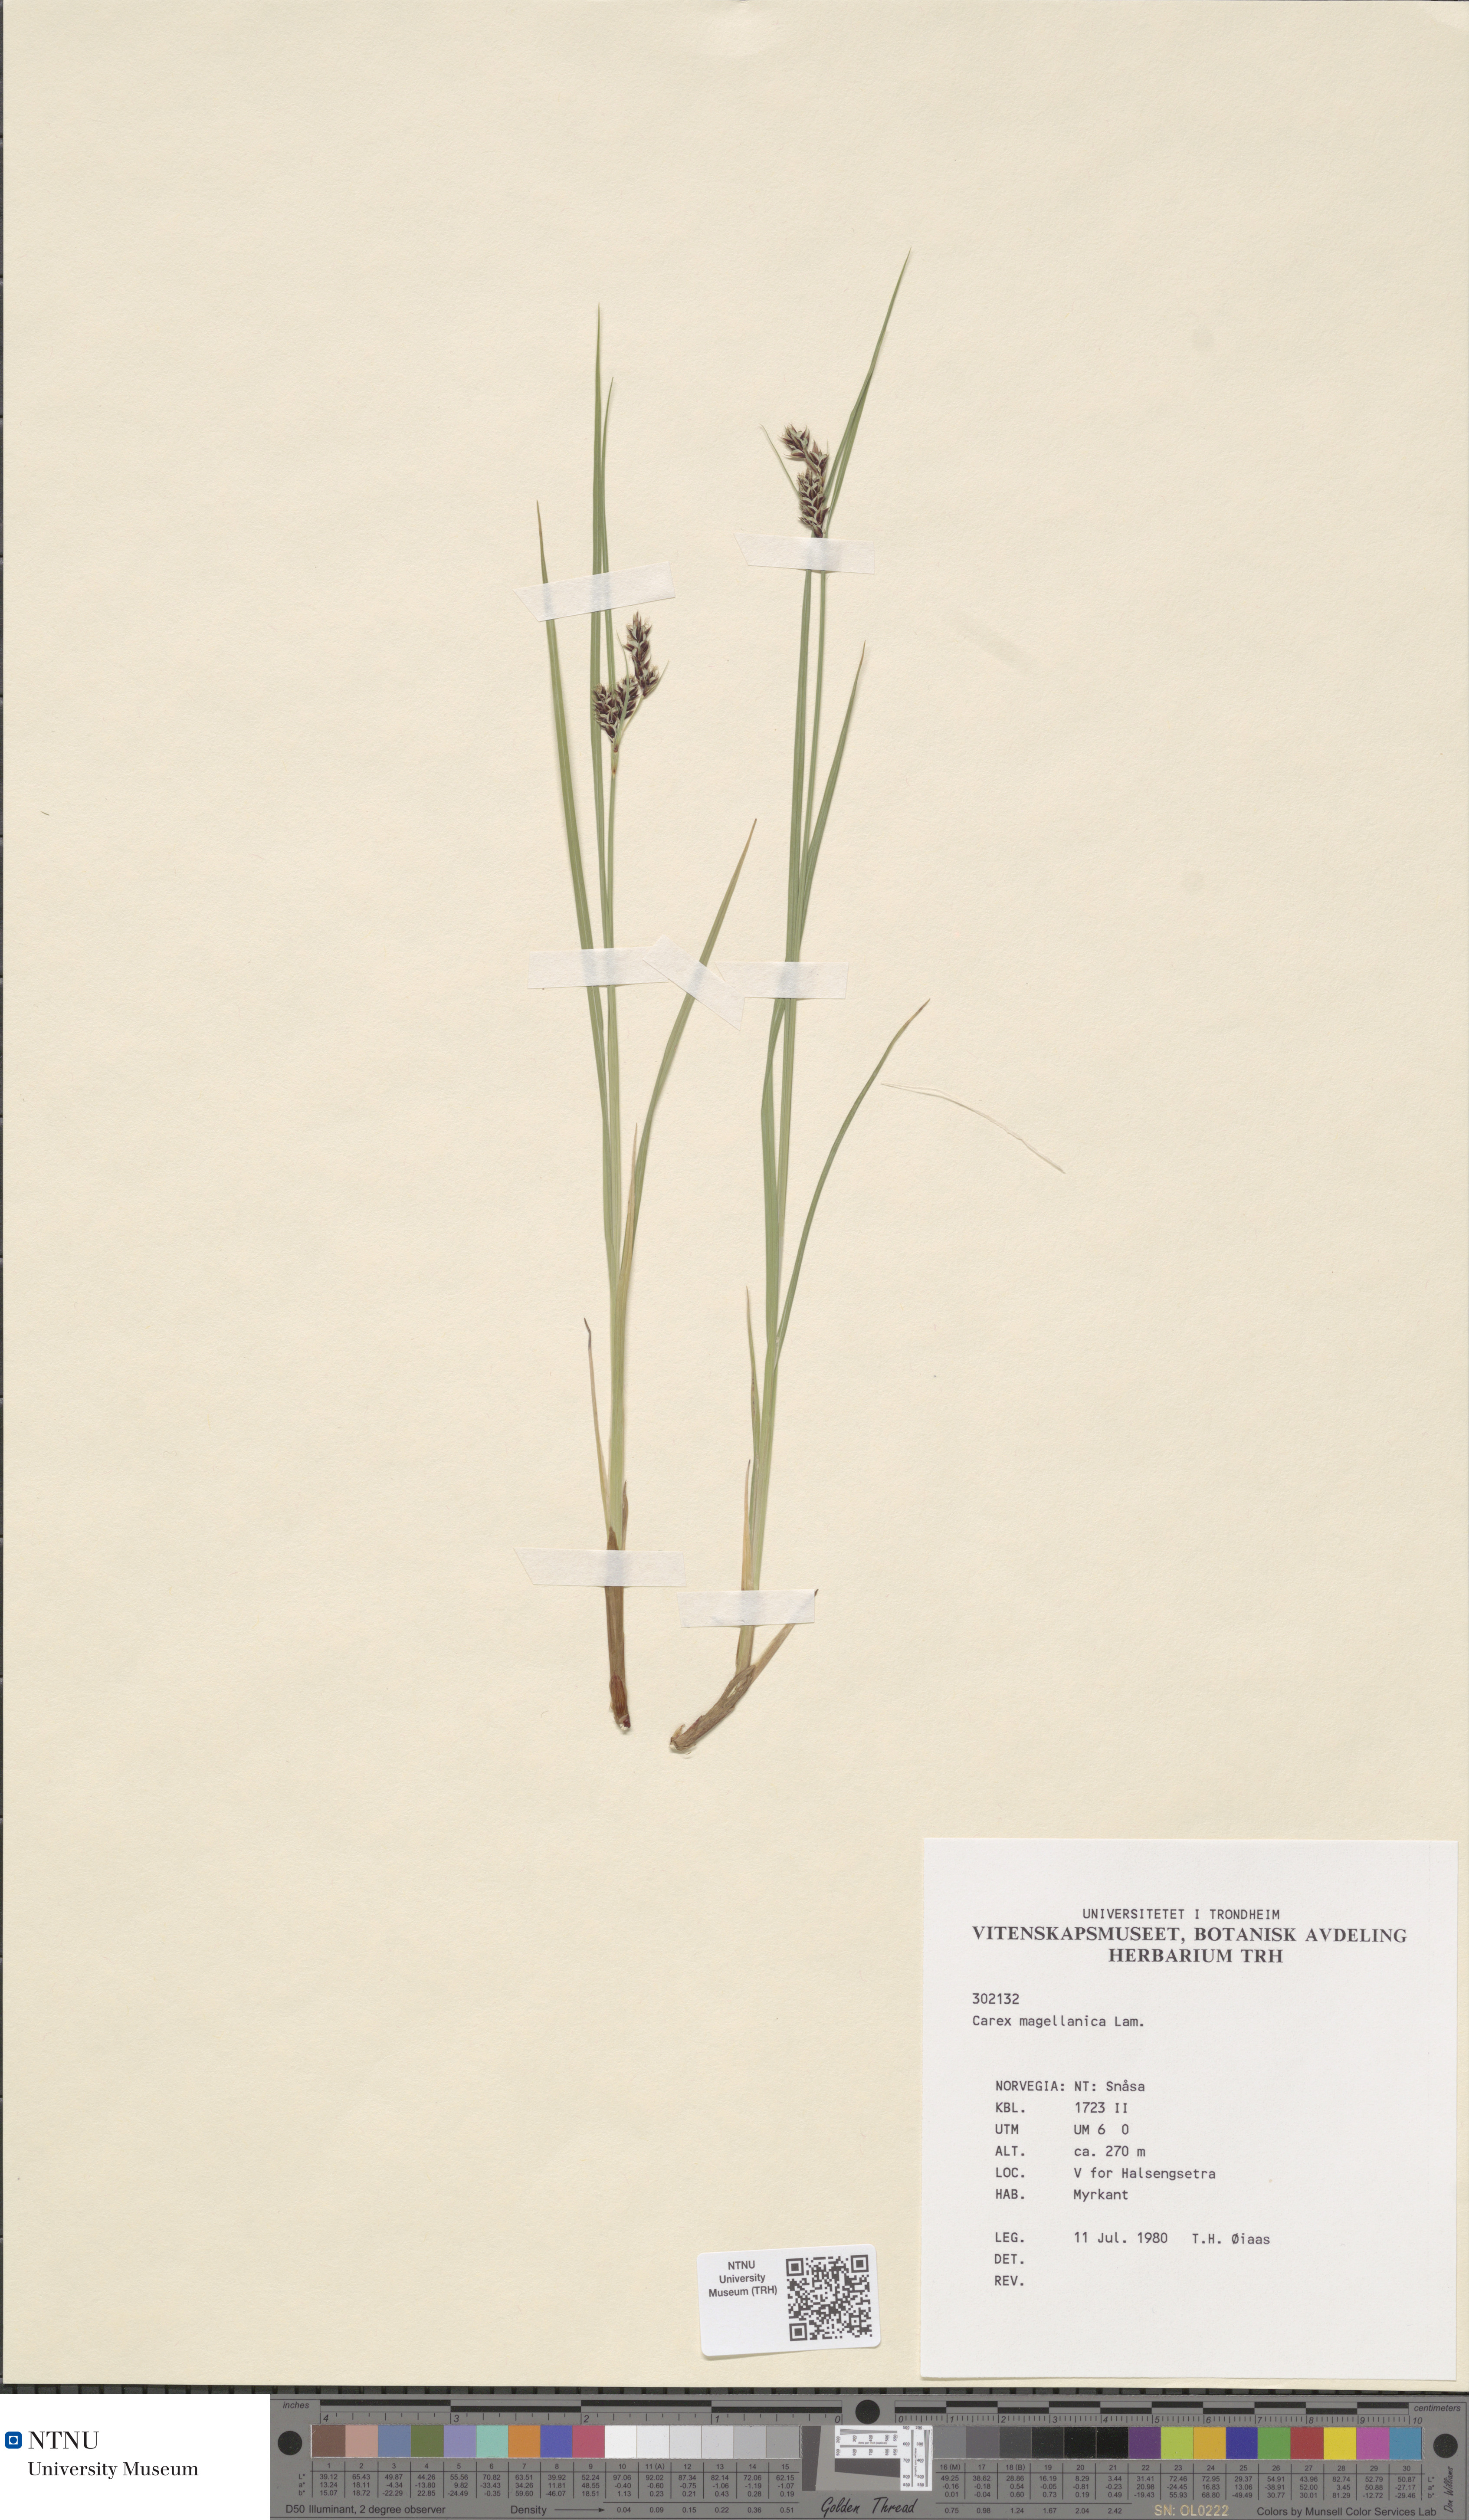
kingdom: Plantae
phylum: Tracheophyta
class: Liliopsida
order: Poales
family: Cyperaceae
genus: Carex
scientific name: Carex magellanica
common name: Bog sedge
